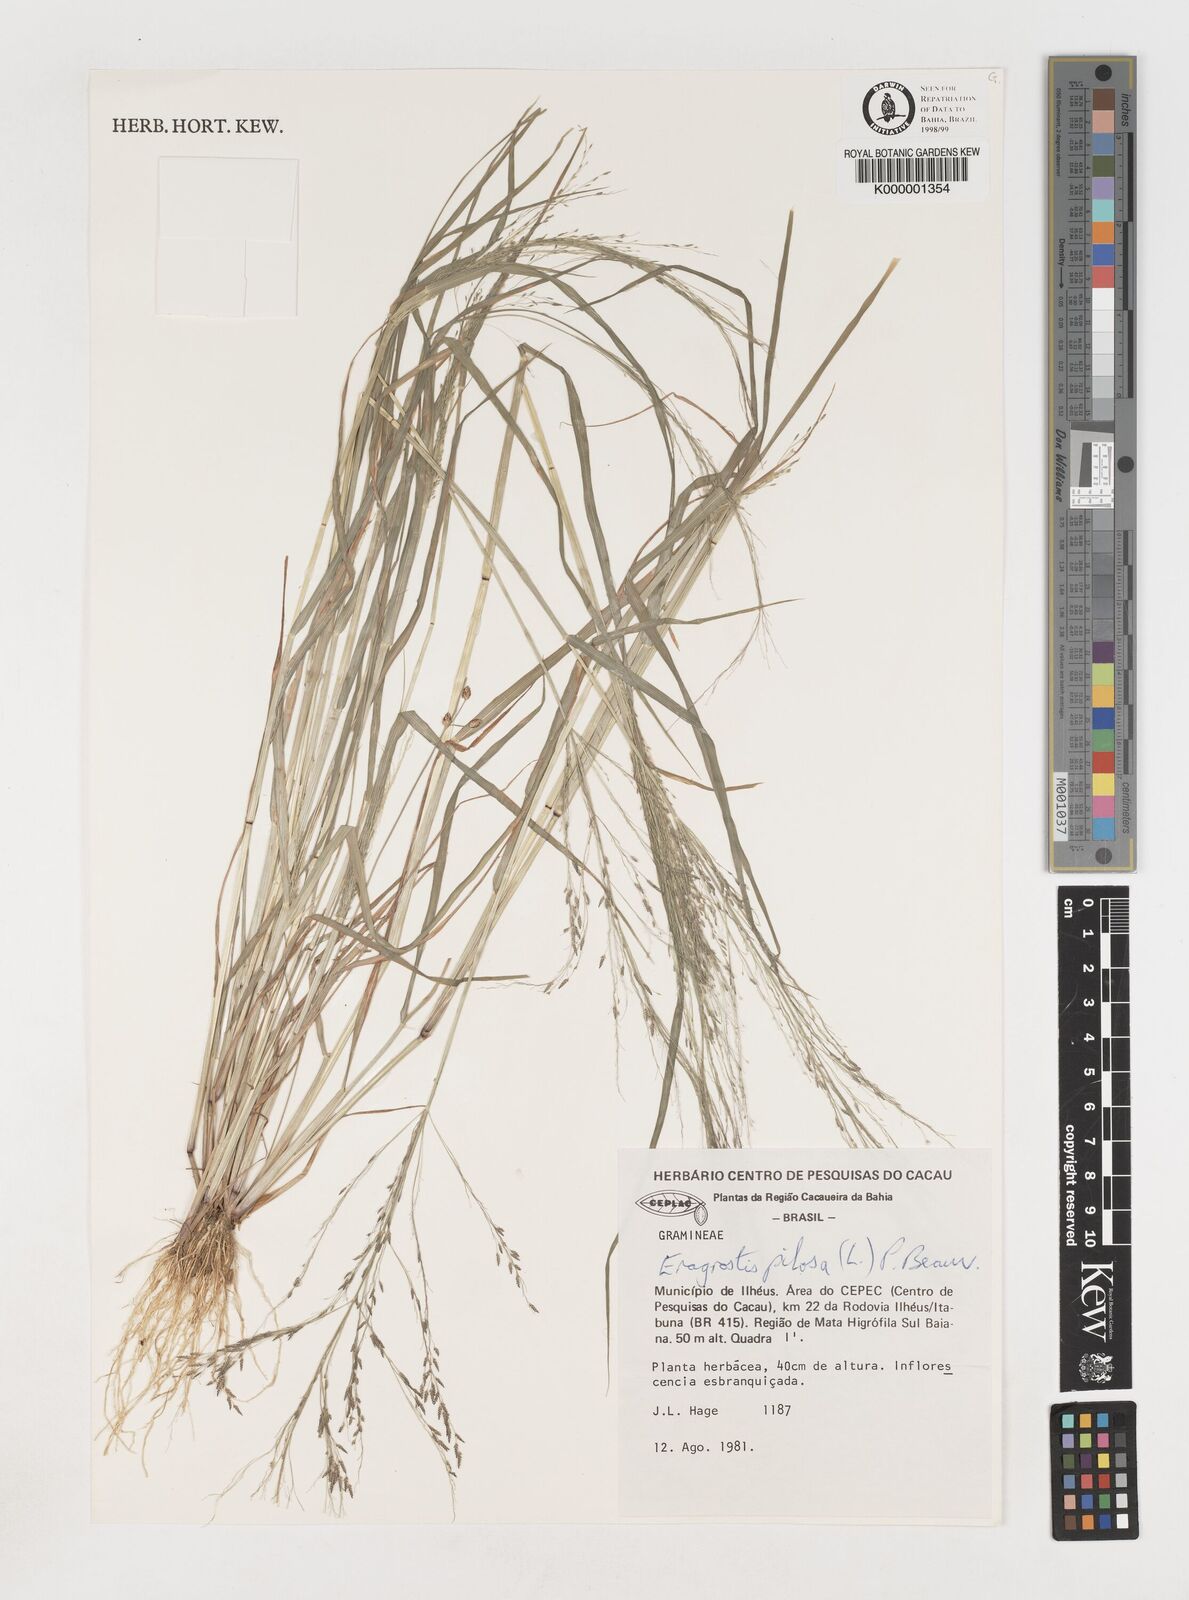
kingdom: Plantae
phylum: Tracheophyta
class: Liliopsida
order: Poales
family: Poaceae
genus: Eragrostis
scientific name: Eragrostis pilosa
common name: Indian lovegrass
